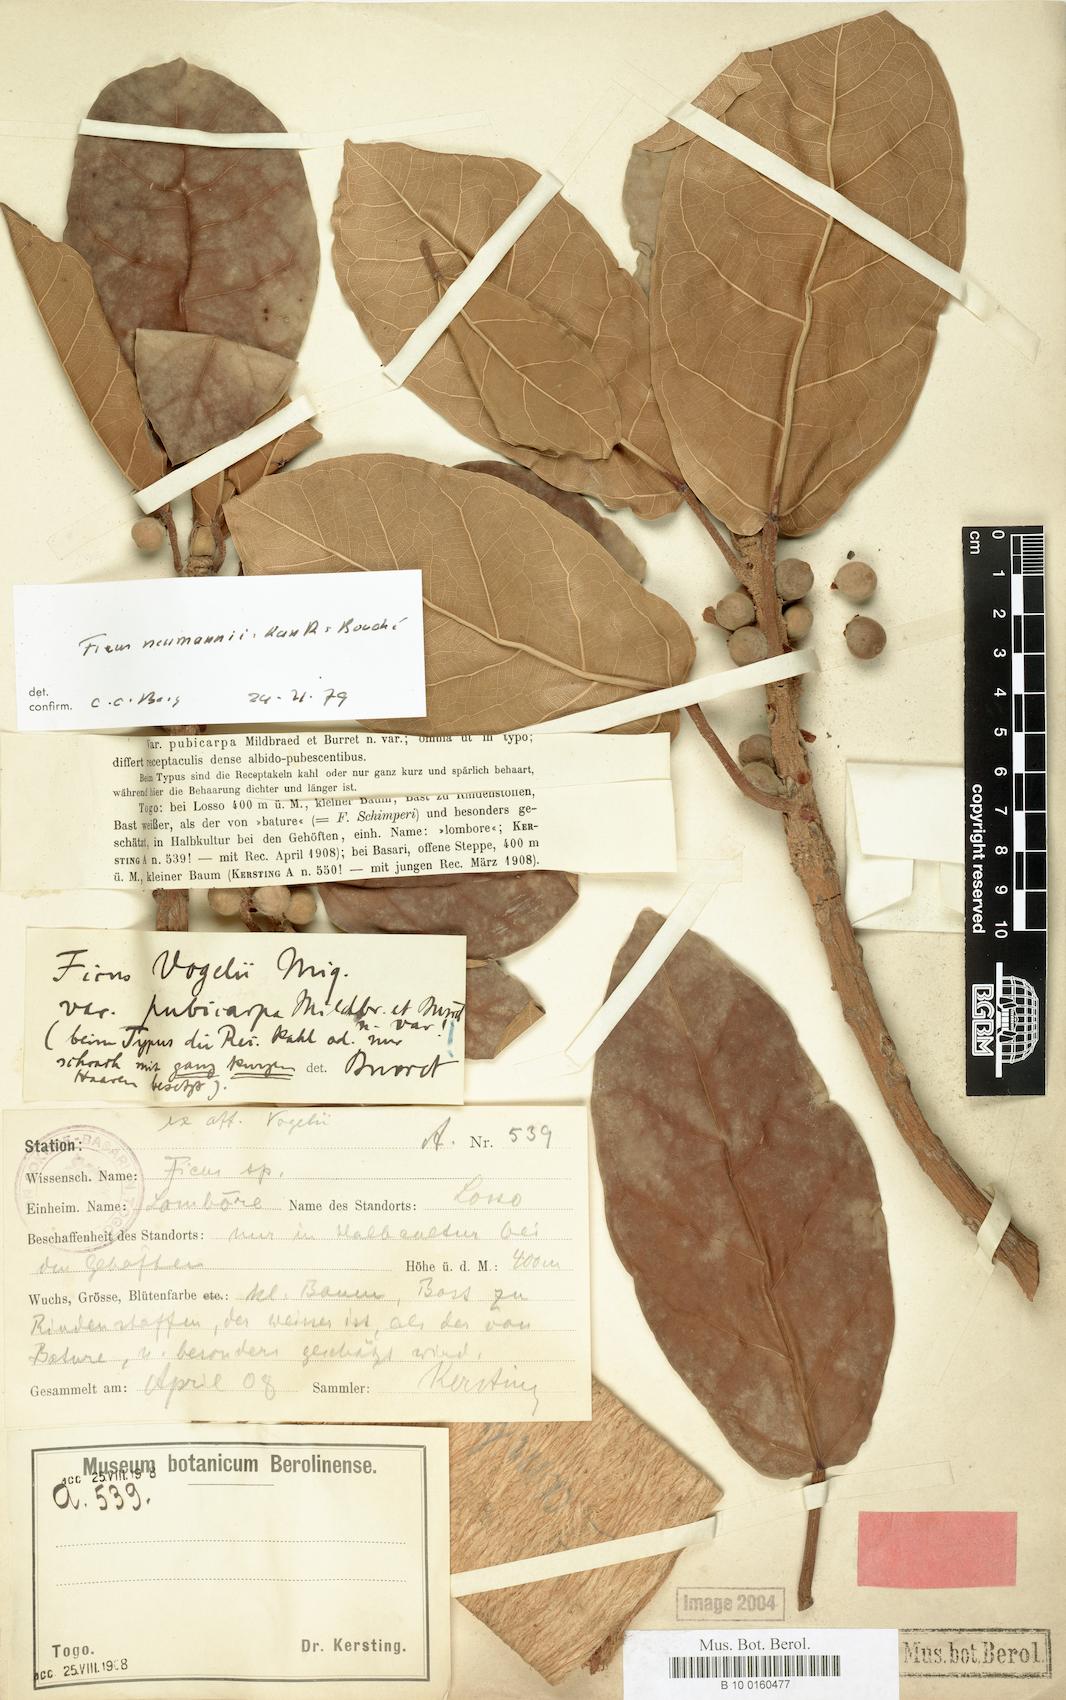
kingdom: Plantae
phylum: Tracheophyta
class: Magnoliopsida
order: Rosales
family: Moraceae
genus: Ficus
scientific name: Ficus lutea
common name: Giant-leaved fig
